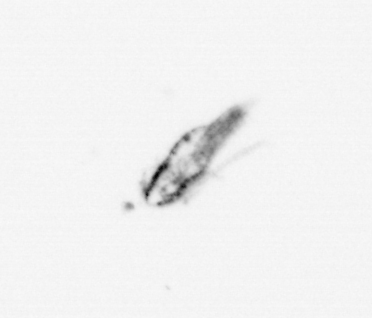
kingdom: Animalia
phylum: Arthropoda
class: Copepoda
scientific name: Copepoda
